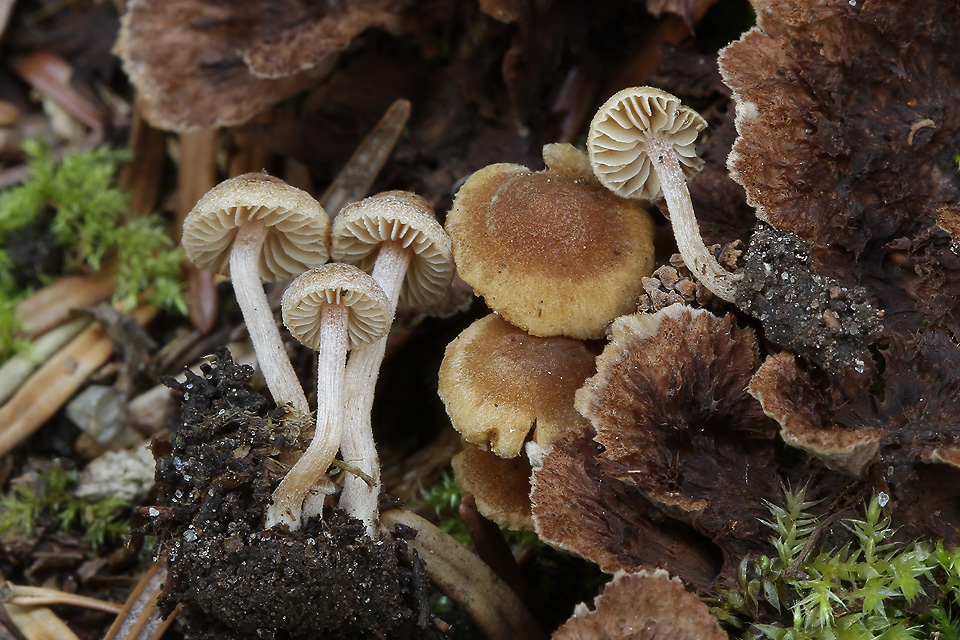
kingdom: Fungi
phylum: Basidiomycota
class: Agaricomycetes
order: Agaricales
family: Inocybaceae
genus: Inocybe
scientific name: Inocybe rufoalba
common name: dværg-trævlhat
